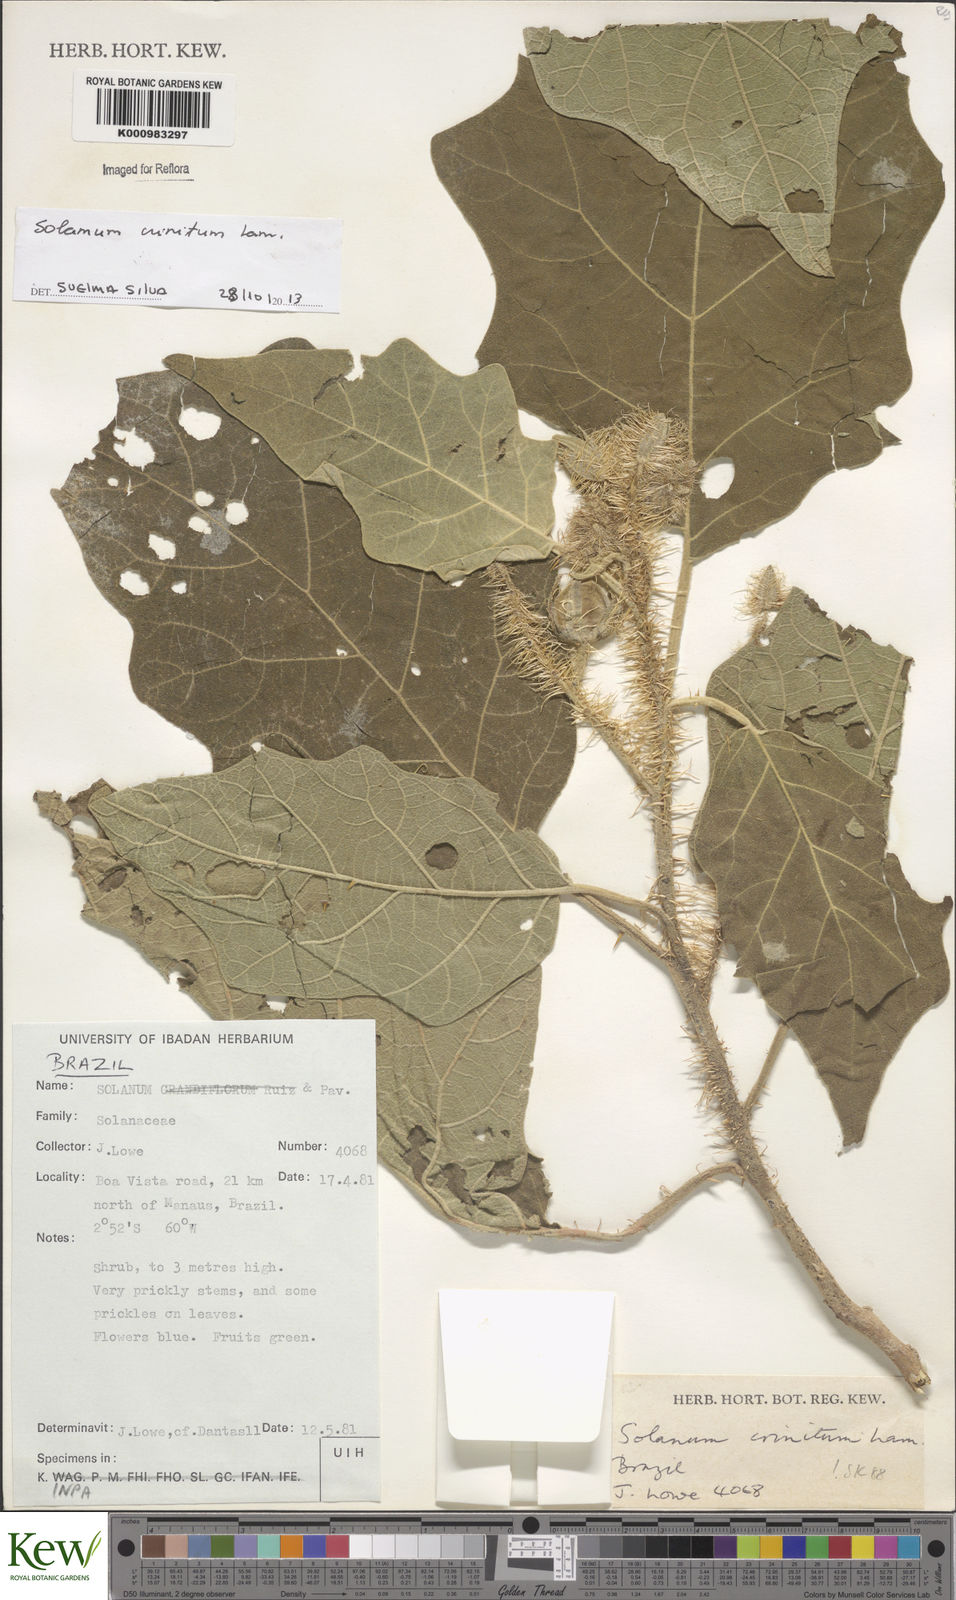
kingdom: Plantae
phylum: Tracheophyta
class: Magnoliopsida
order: Solanales
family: Solanaceae
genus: Solanum
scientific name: Solanum crinitum
